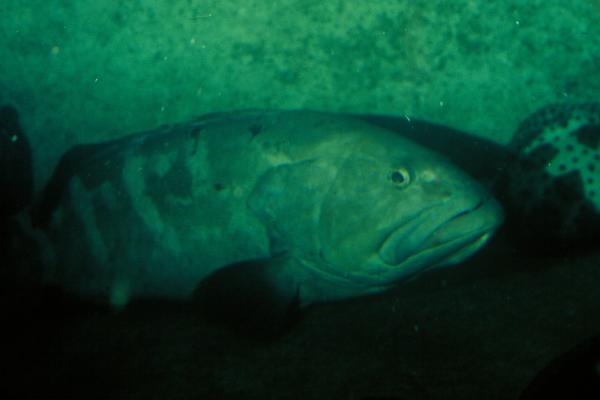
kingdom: Animalia
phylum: Chordata
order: Perciformes
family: Serranidae
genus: Epinephelus
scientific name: Epinephelus
